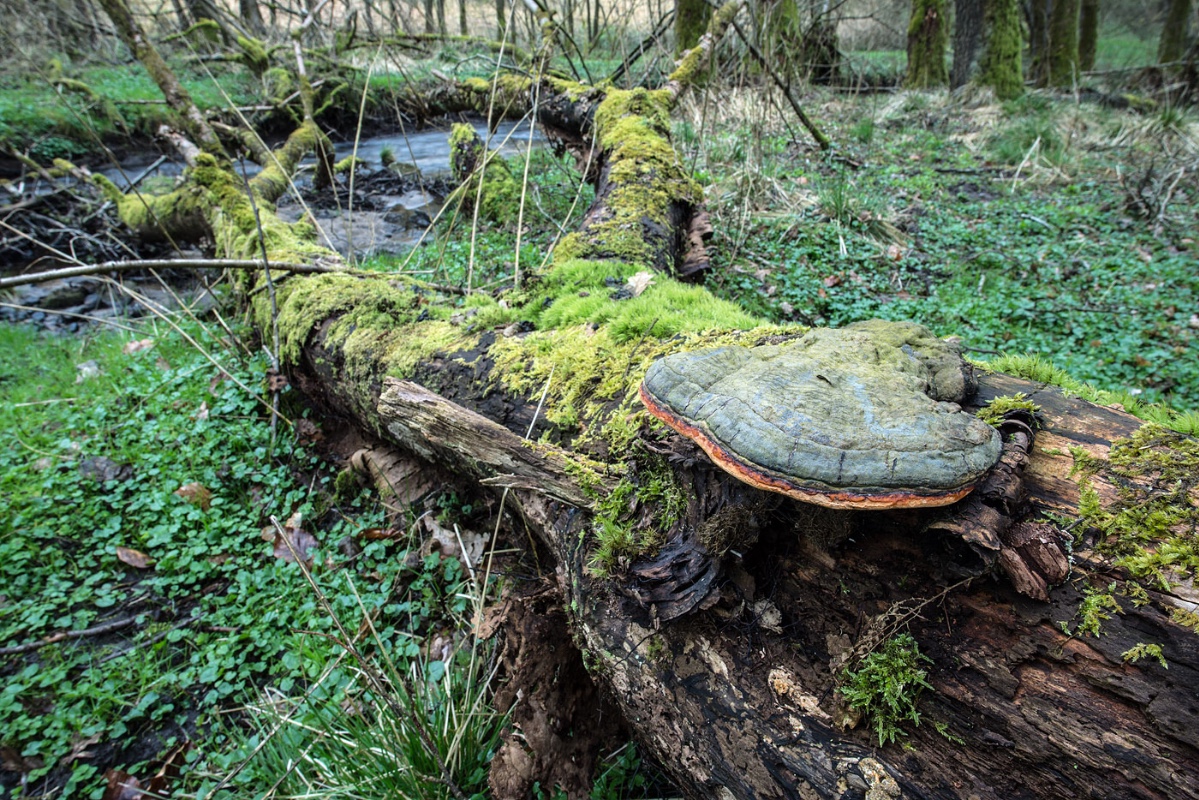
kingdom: Fungi
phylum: Basidiomycota
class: Agaricomycetes
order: Polyporales
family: Fomitopsidaceae
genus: Fomitopsis
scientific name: Fomitopsis pinicola
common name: randbæltet hovporesvamp
